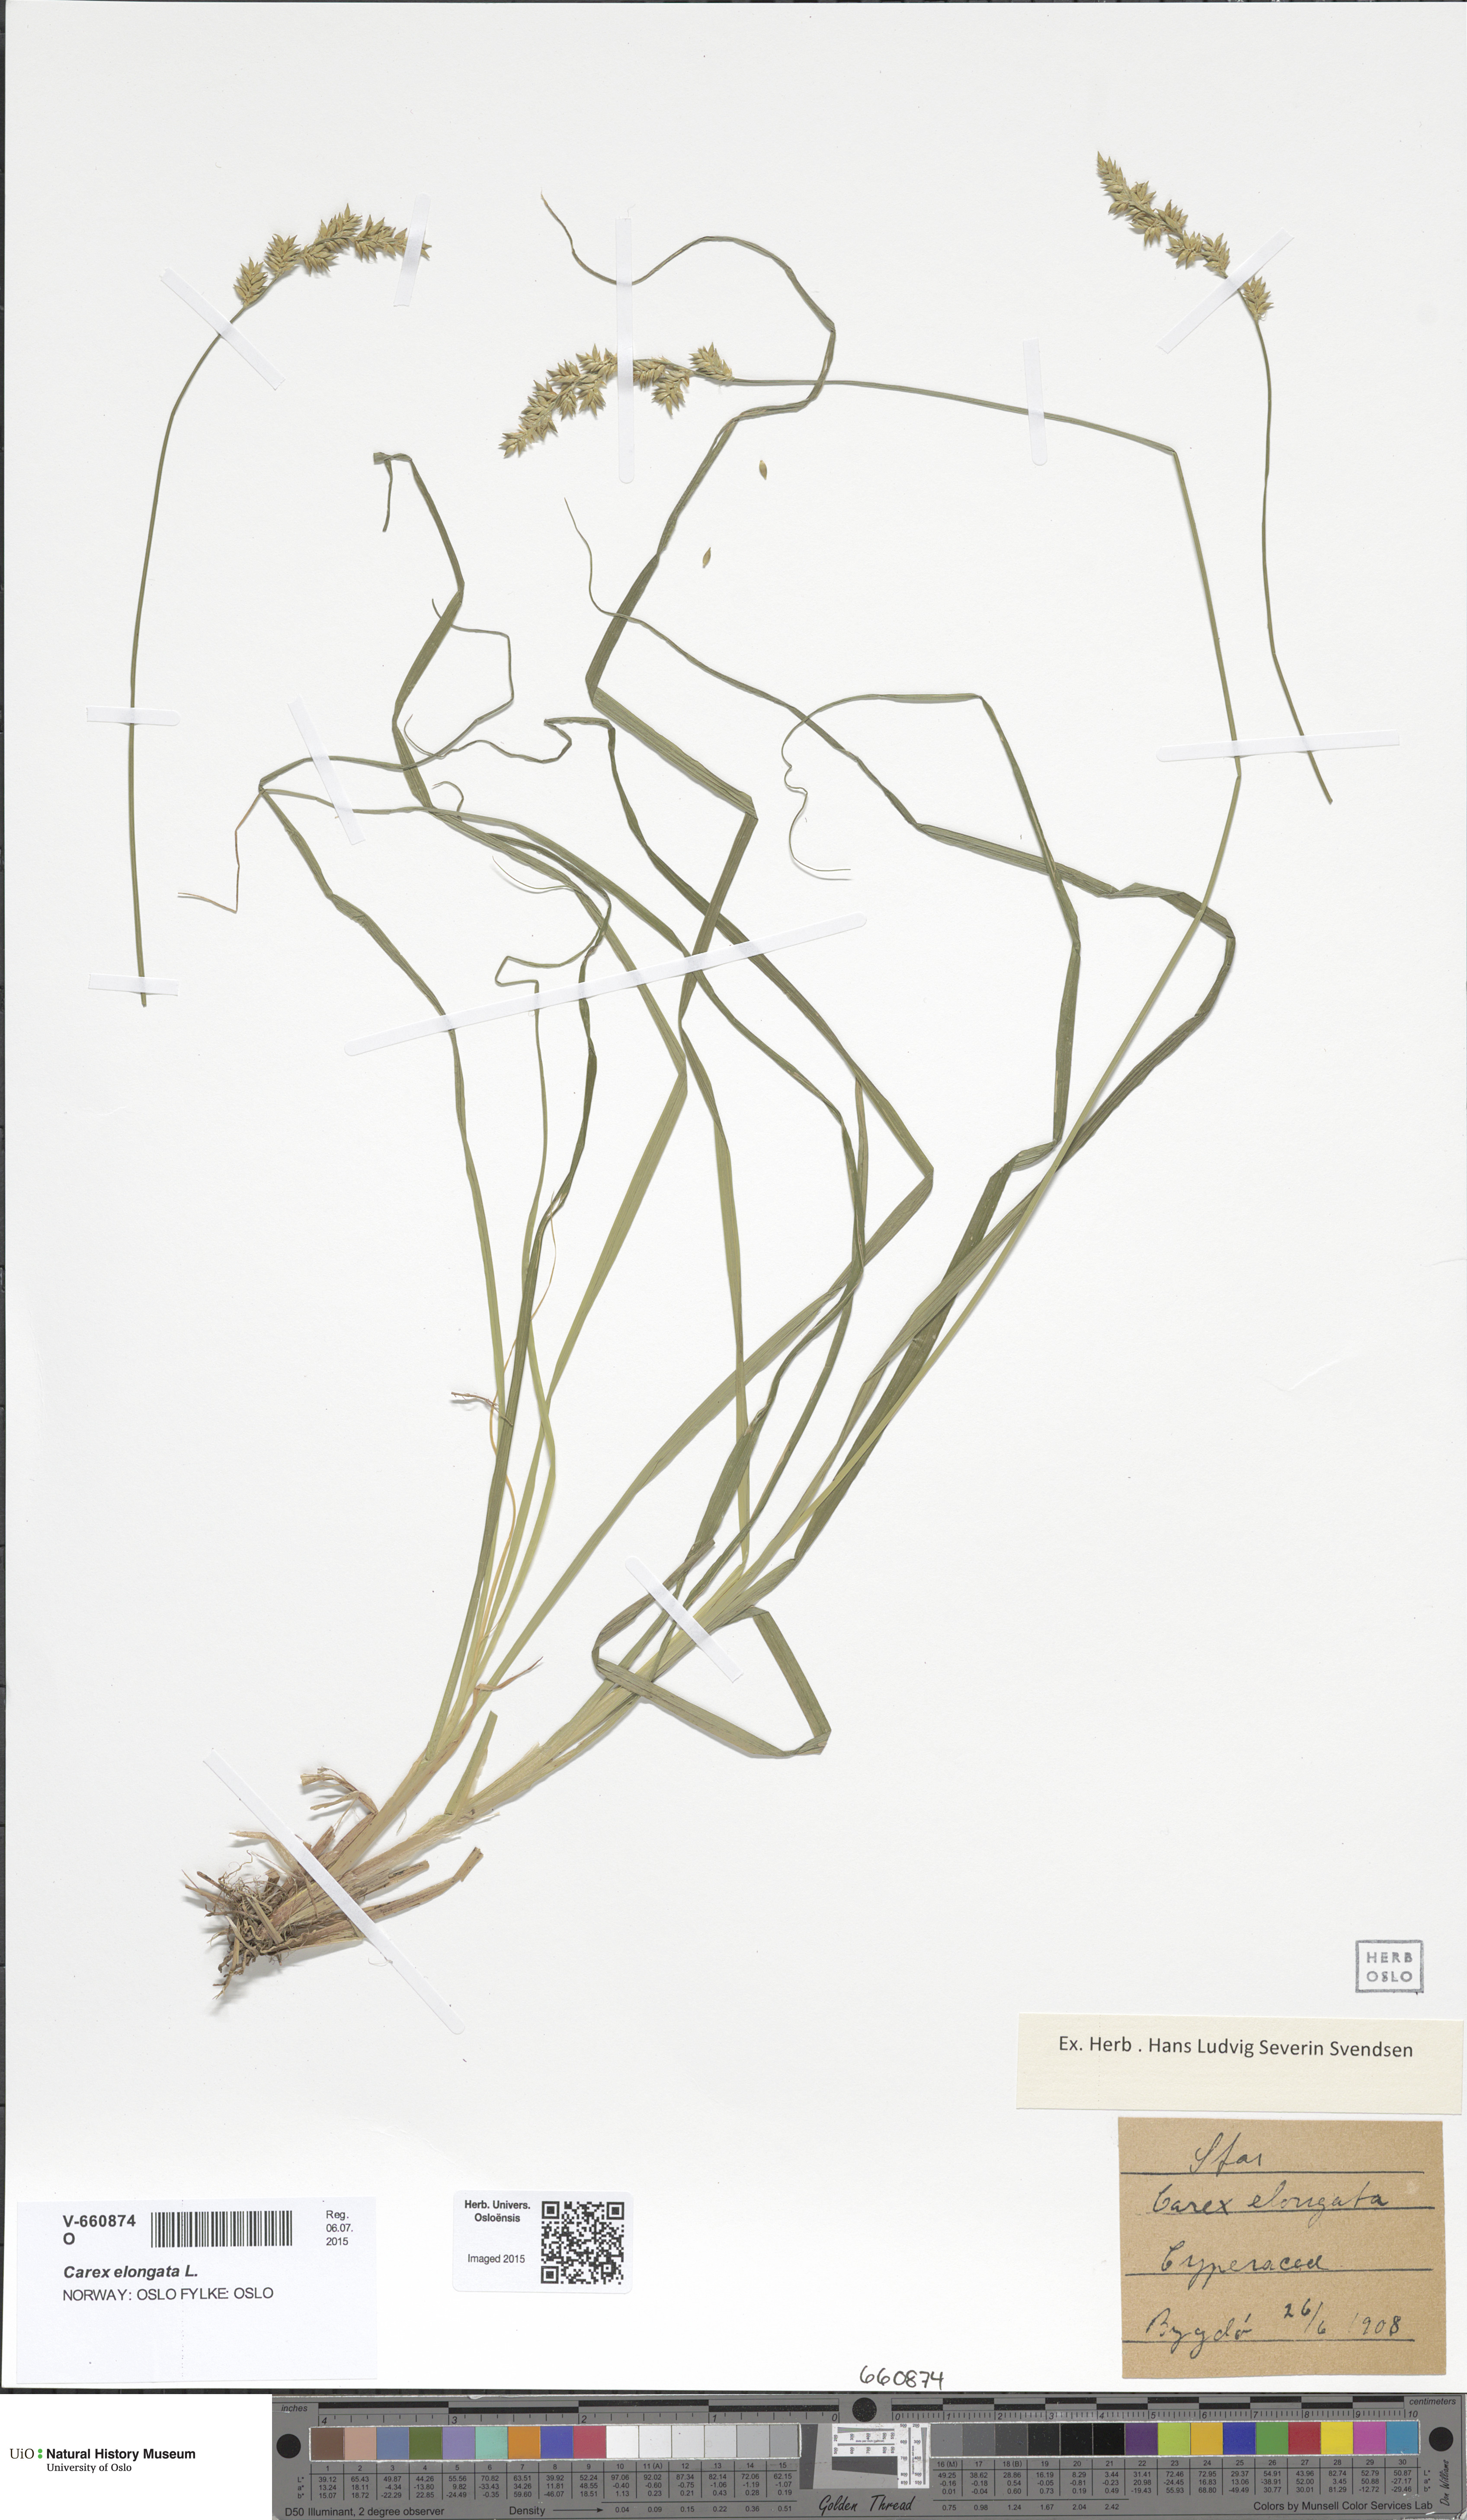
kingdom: Plantae
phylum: Tracheophyta
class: Liliopsida
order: Poales
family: Cyperaceae
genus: Carex
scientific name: Carex elongata
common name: Elongated sedge
